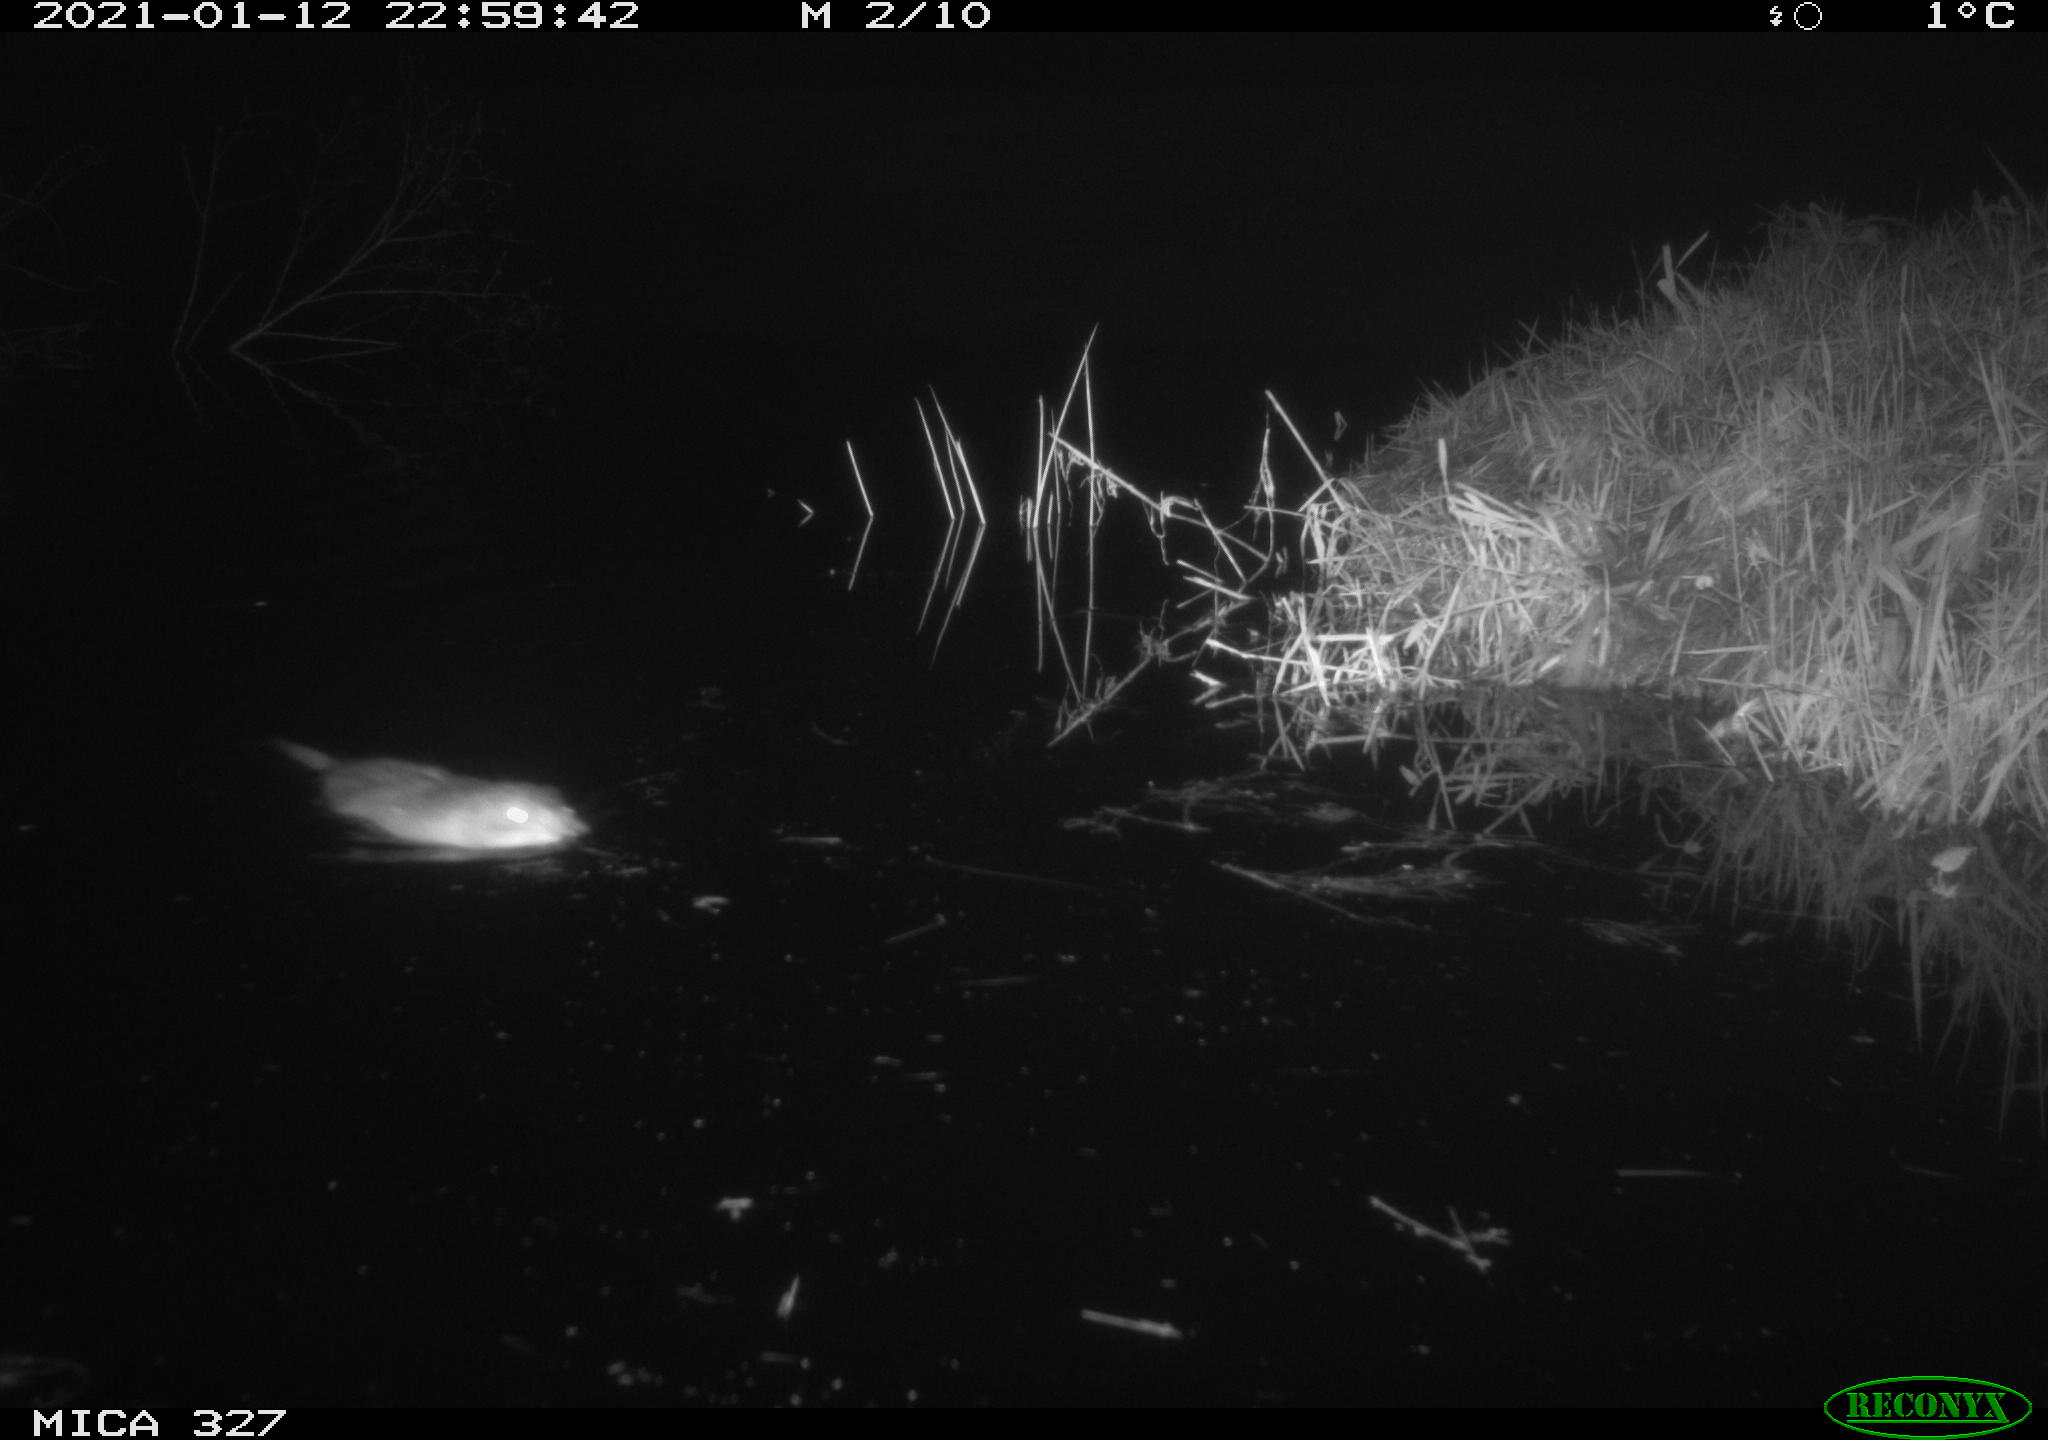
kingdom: Animalia
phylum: Chordata
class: Mammalia
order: Rodentia
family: Cricetidae
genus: Ondatra
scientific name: Ondatra zibethicus
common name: Muskrat
